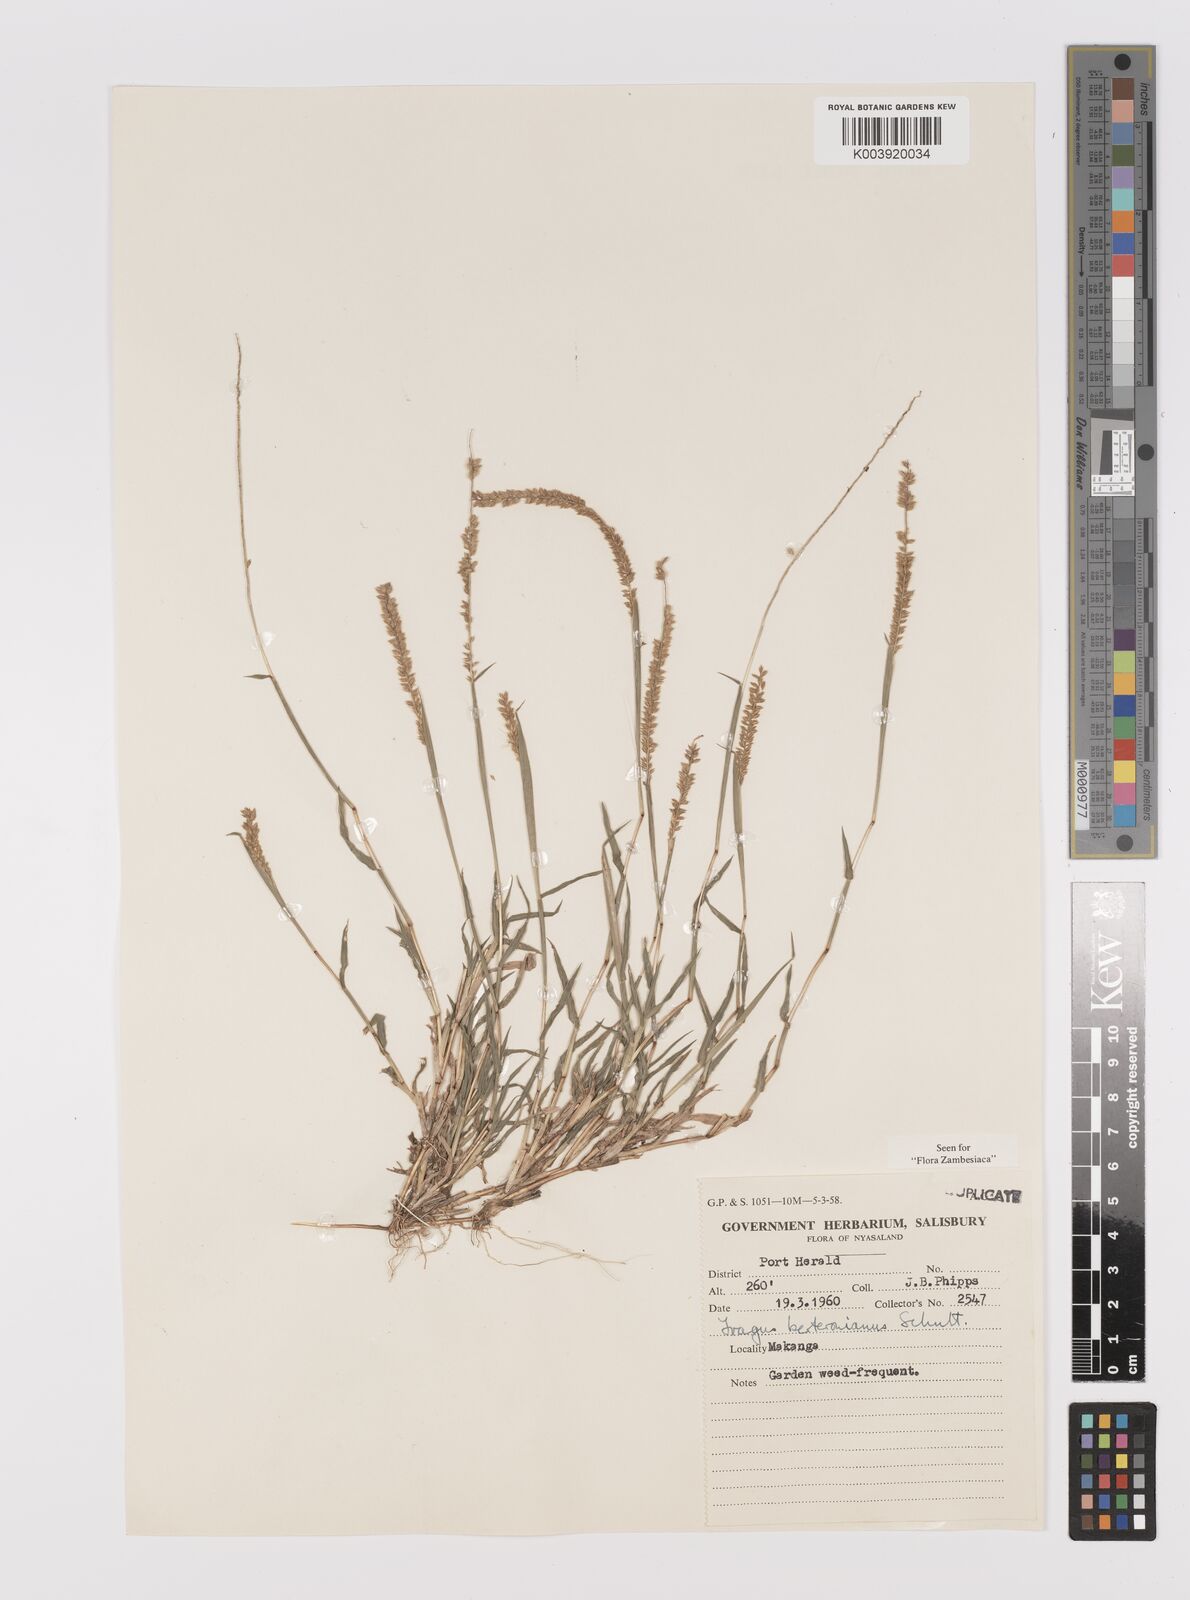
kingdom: Plantae
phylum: Tracheophyta
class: Liliopsida
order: Poales
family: Poaceae
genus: Tragus
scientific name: Tragus berteronianus
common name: African bur-grass
